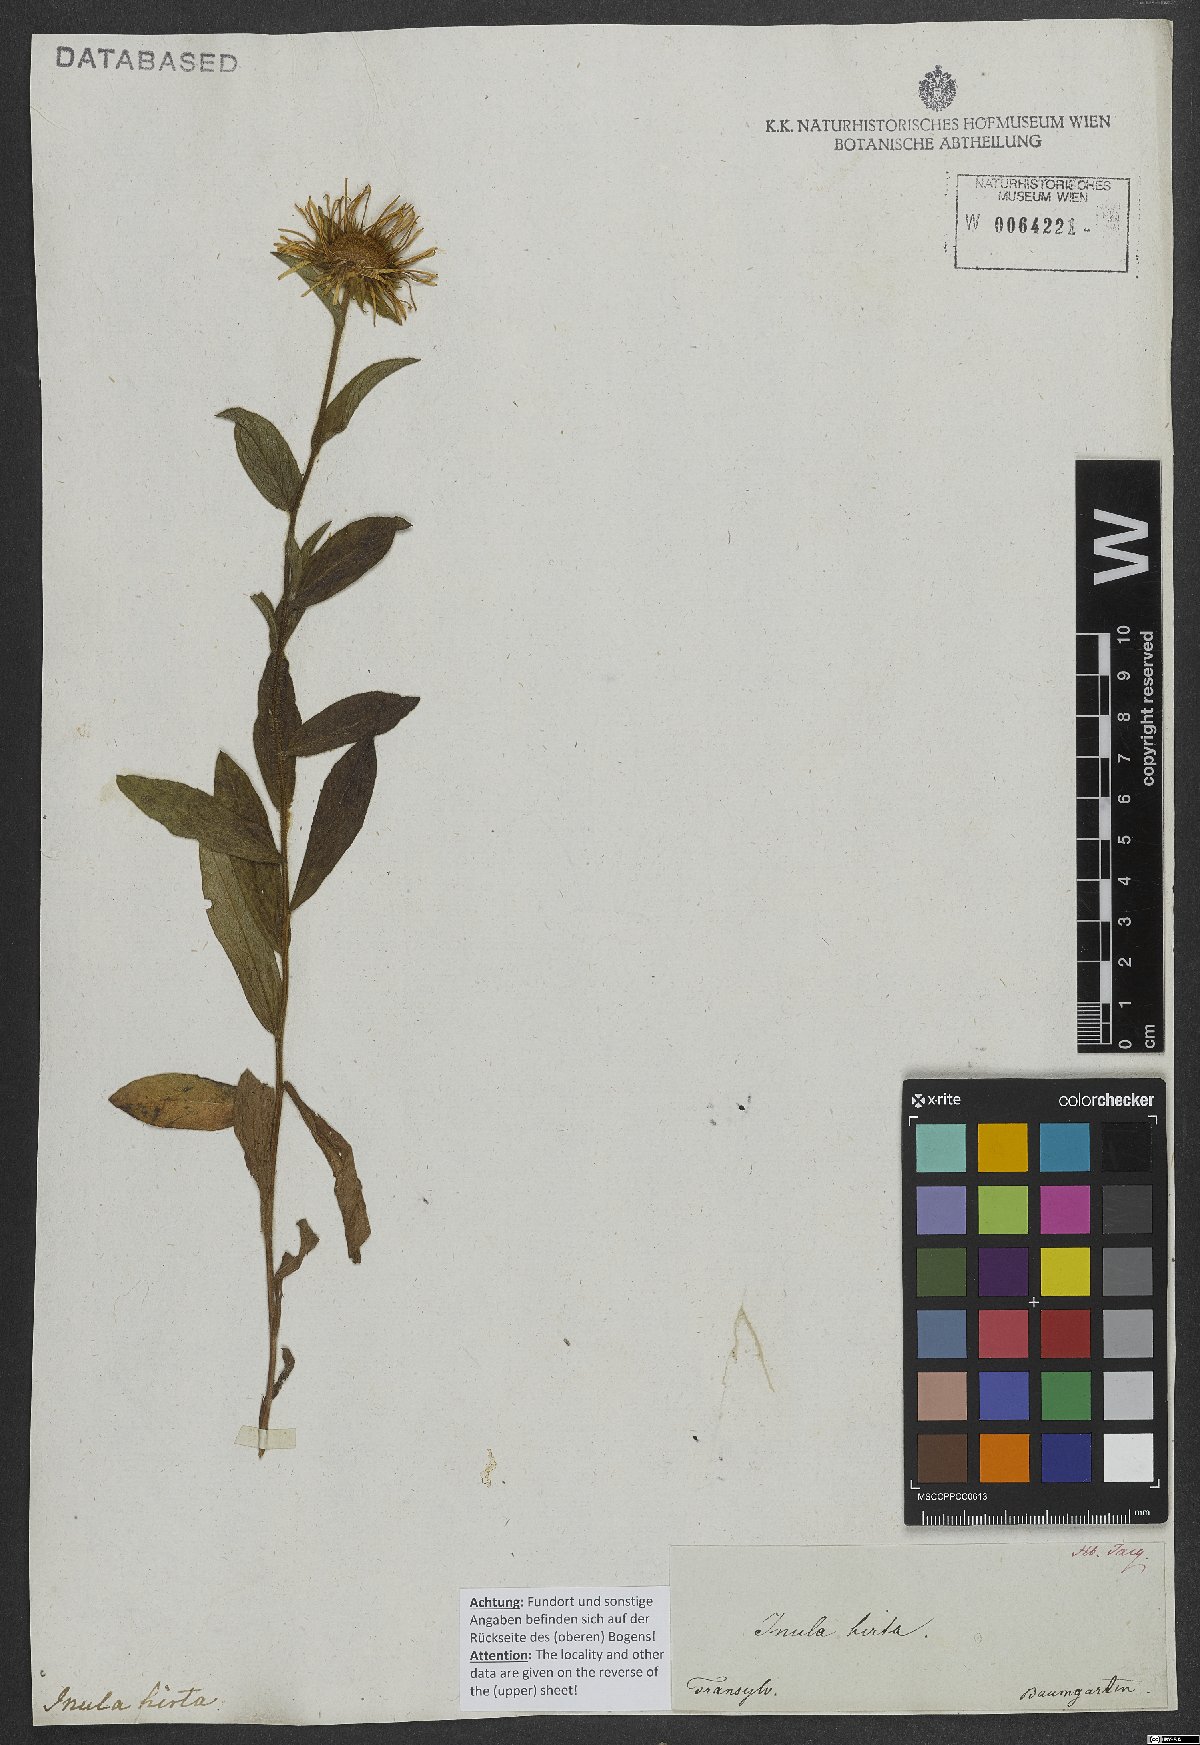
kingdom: Plantae
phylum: Tracheophyta
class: Magnoliopsida
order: Asterales
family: Asteraceae
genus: Pentanema
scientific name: Pentanema hirtum
